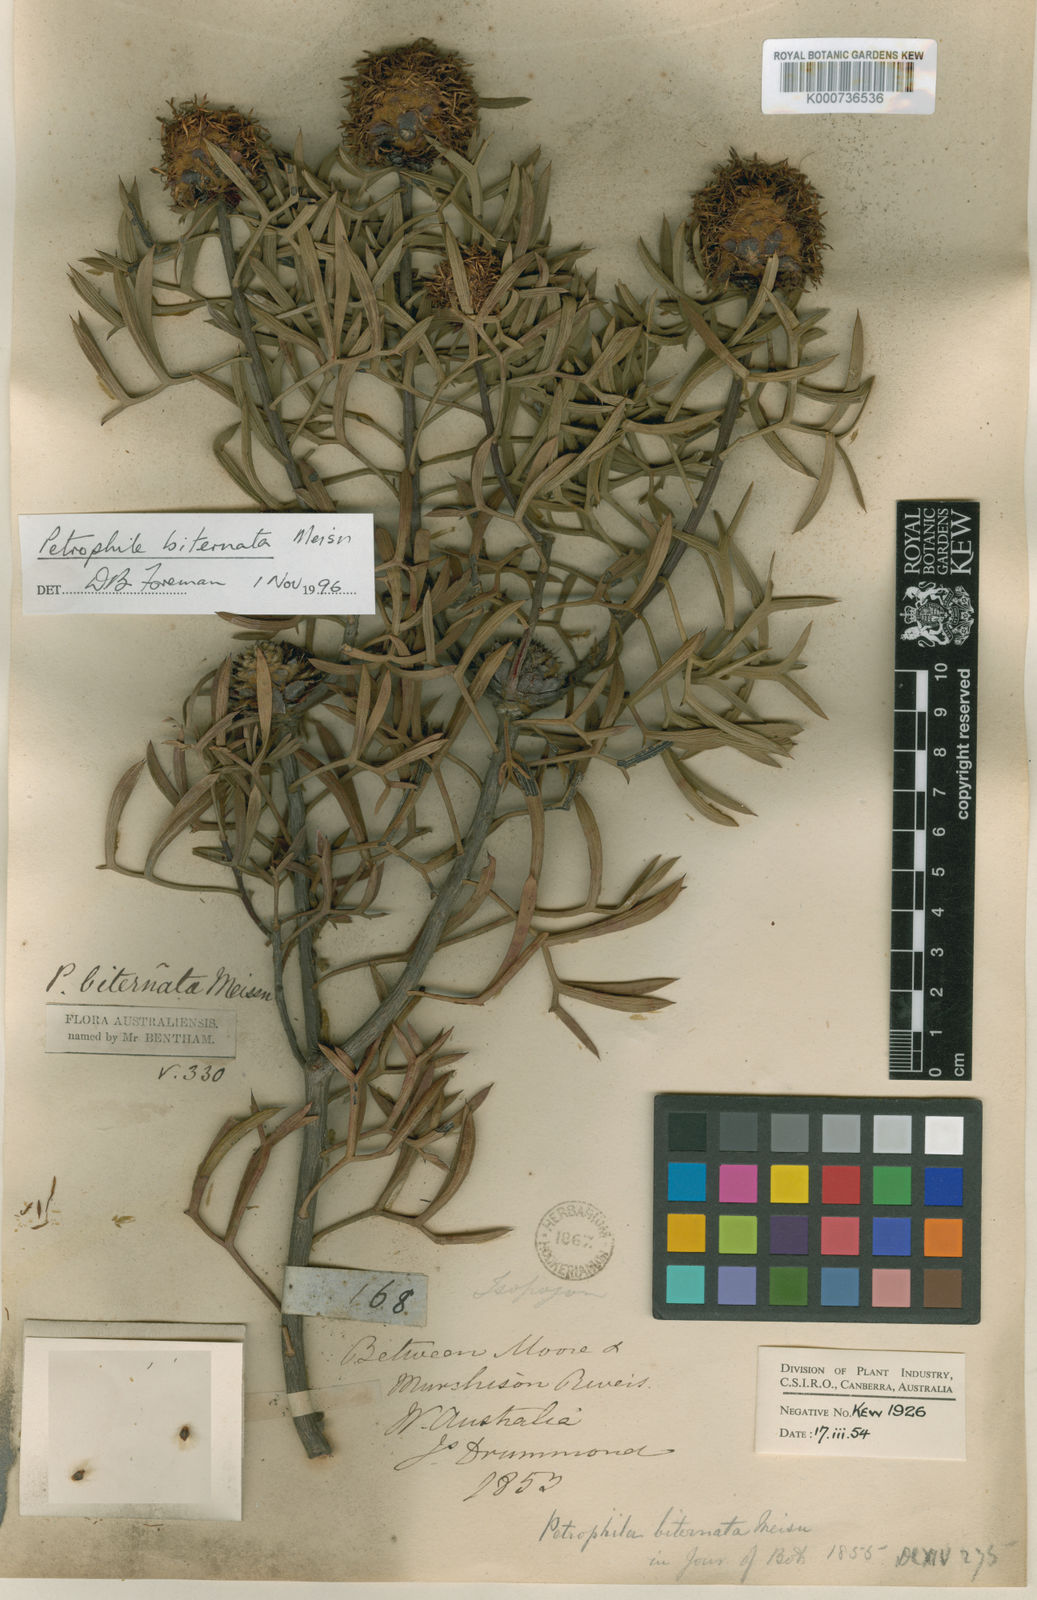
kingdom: Plantae
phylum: Tracheophyta
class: Magnoliopsida
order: Proteales
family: Proteaceae
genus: Petrophile
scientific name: Petrophile biternata
